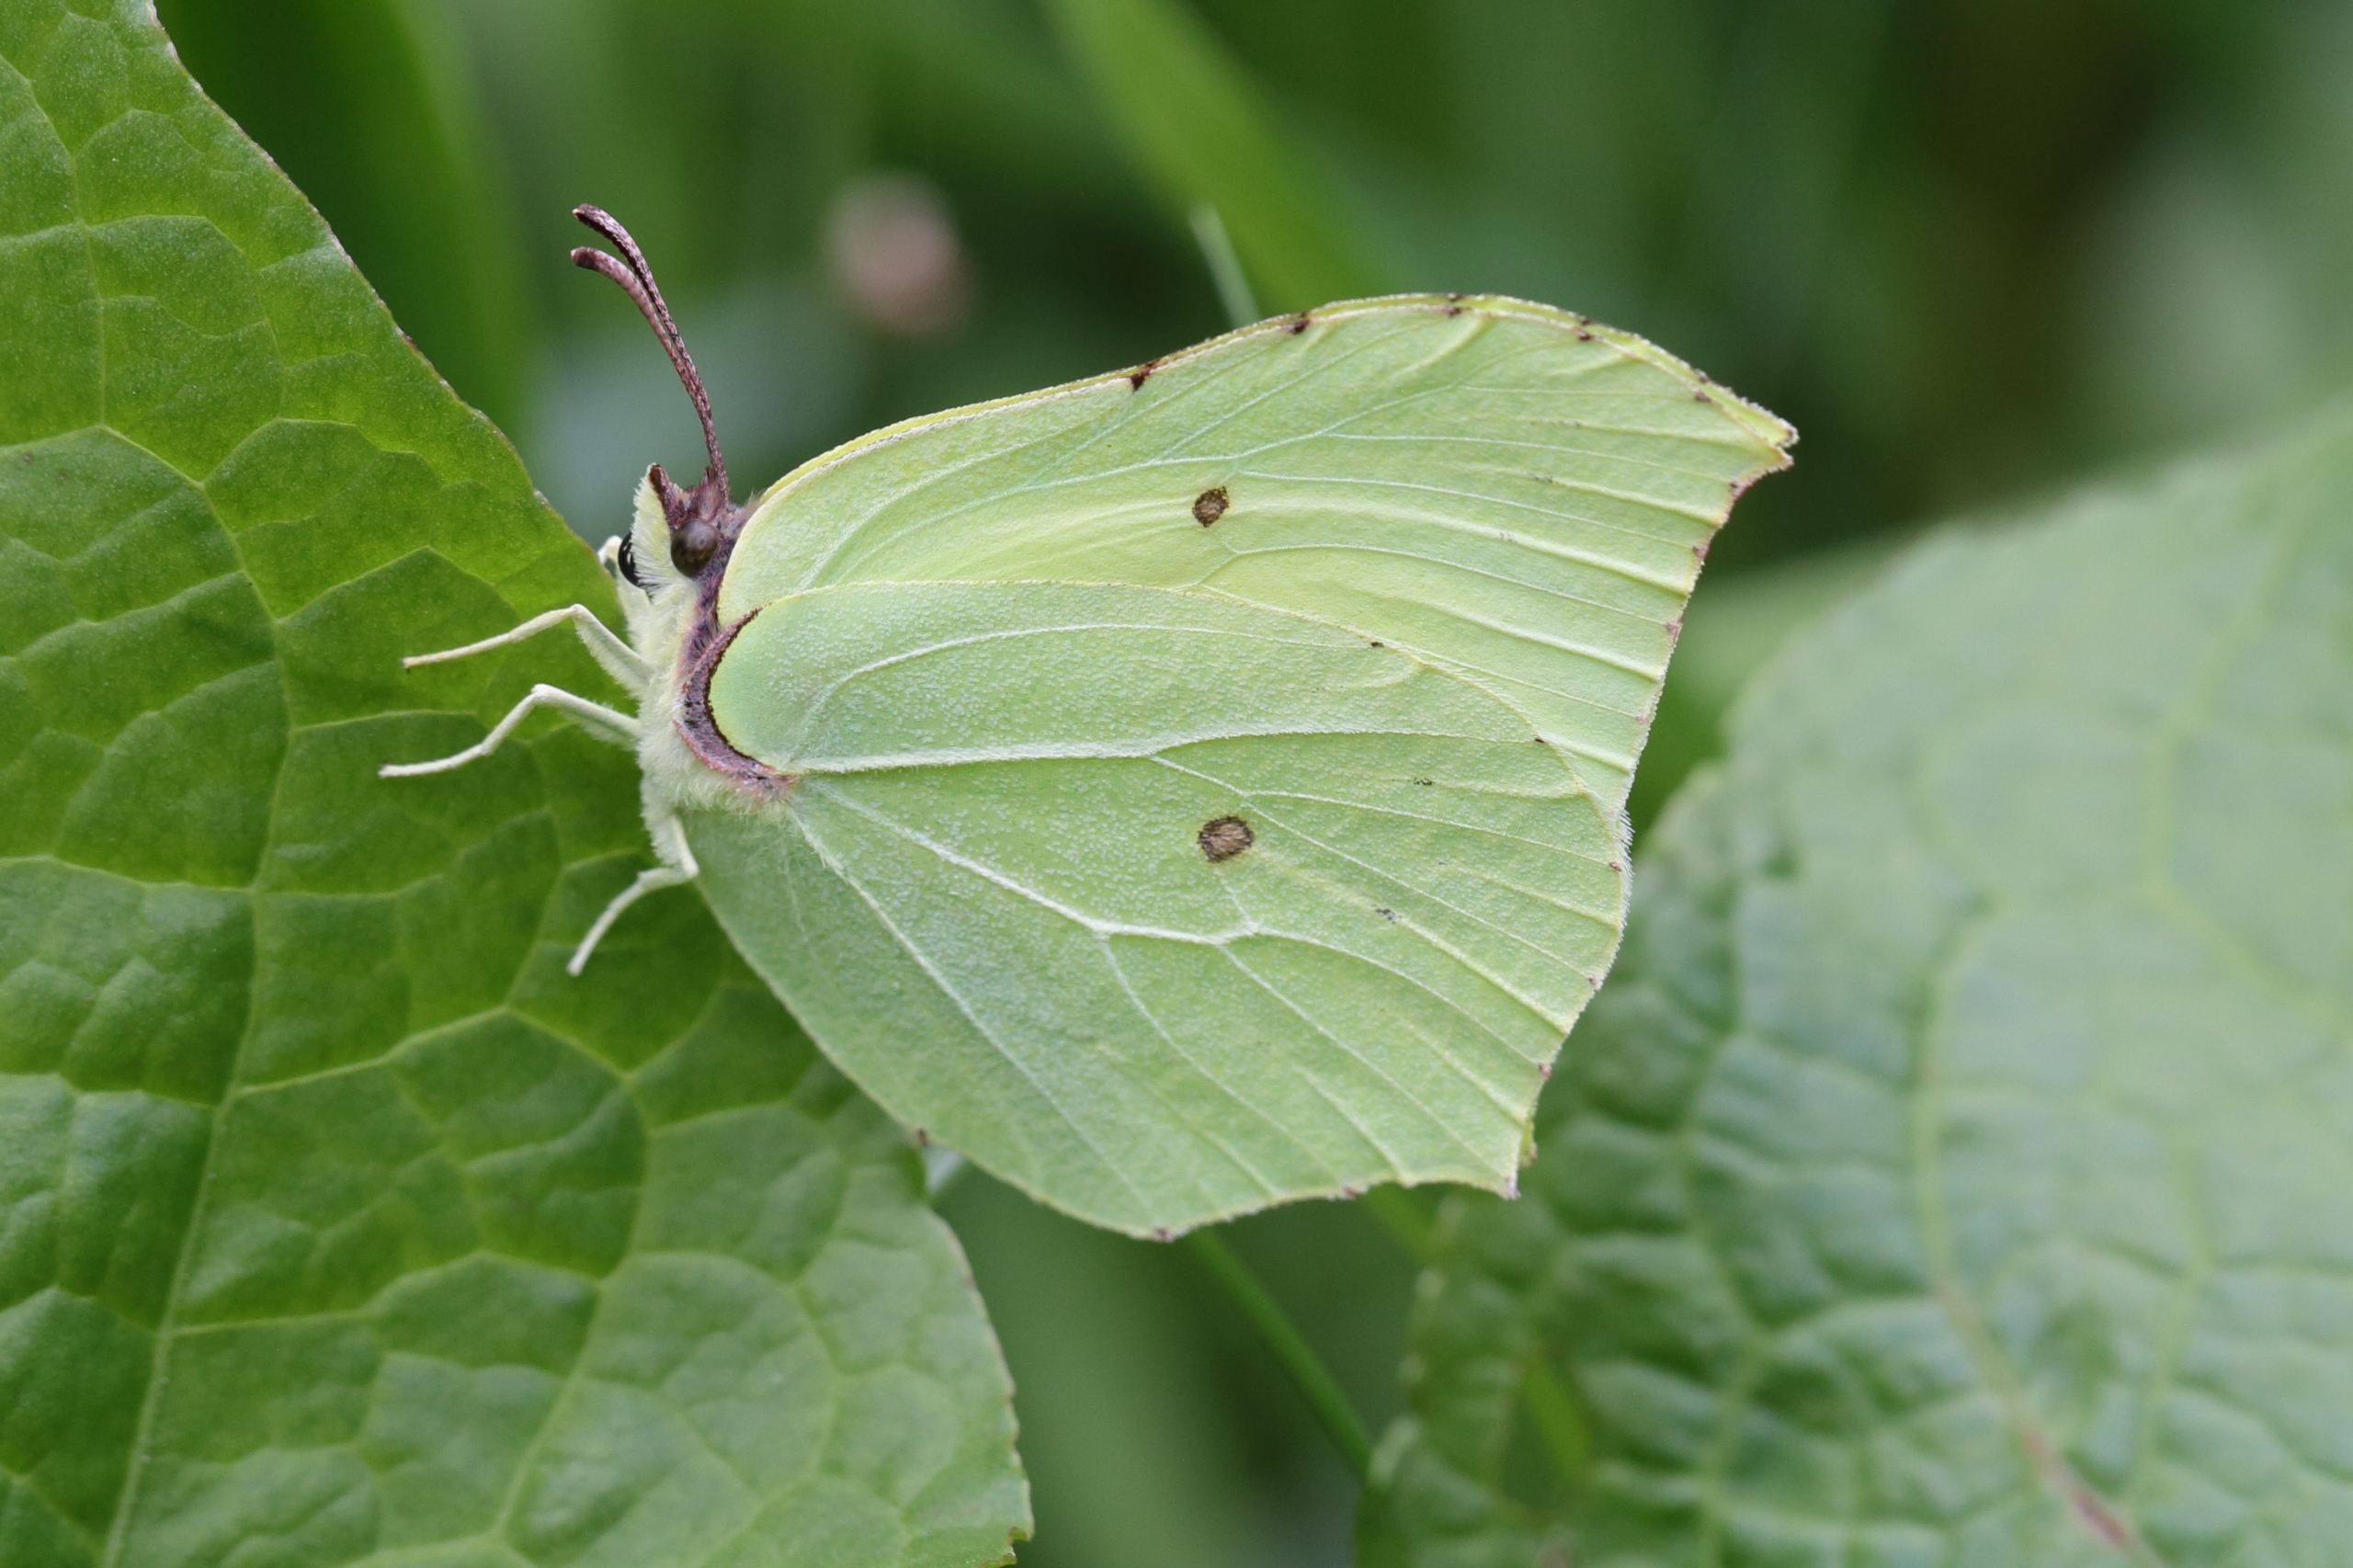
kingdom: Animalia
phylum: Arthropoda
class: Insecta
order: Lepidoptera
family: Pieridae
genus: Gonepteryx
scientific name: Gonepteryx rhamni
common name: Citronsommerfugl
